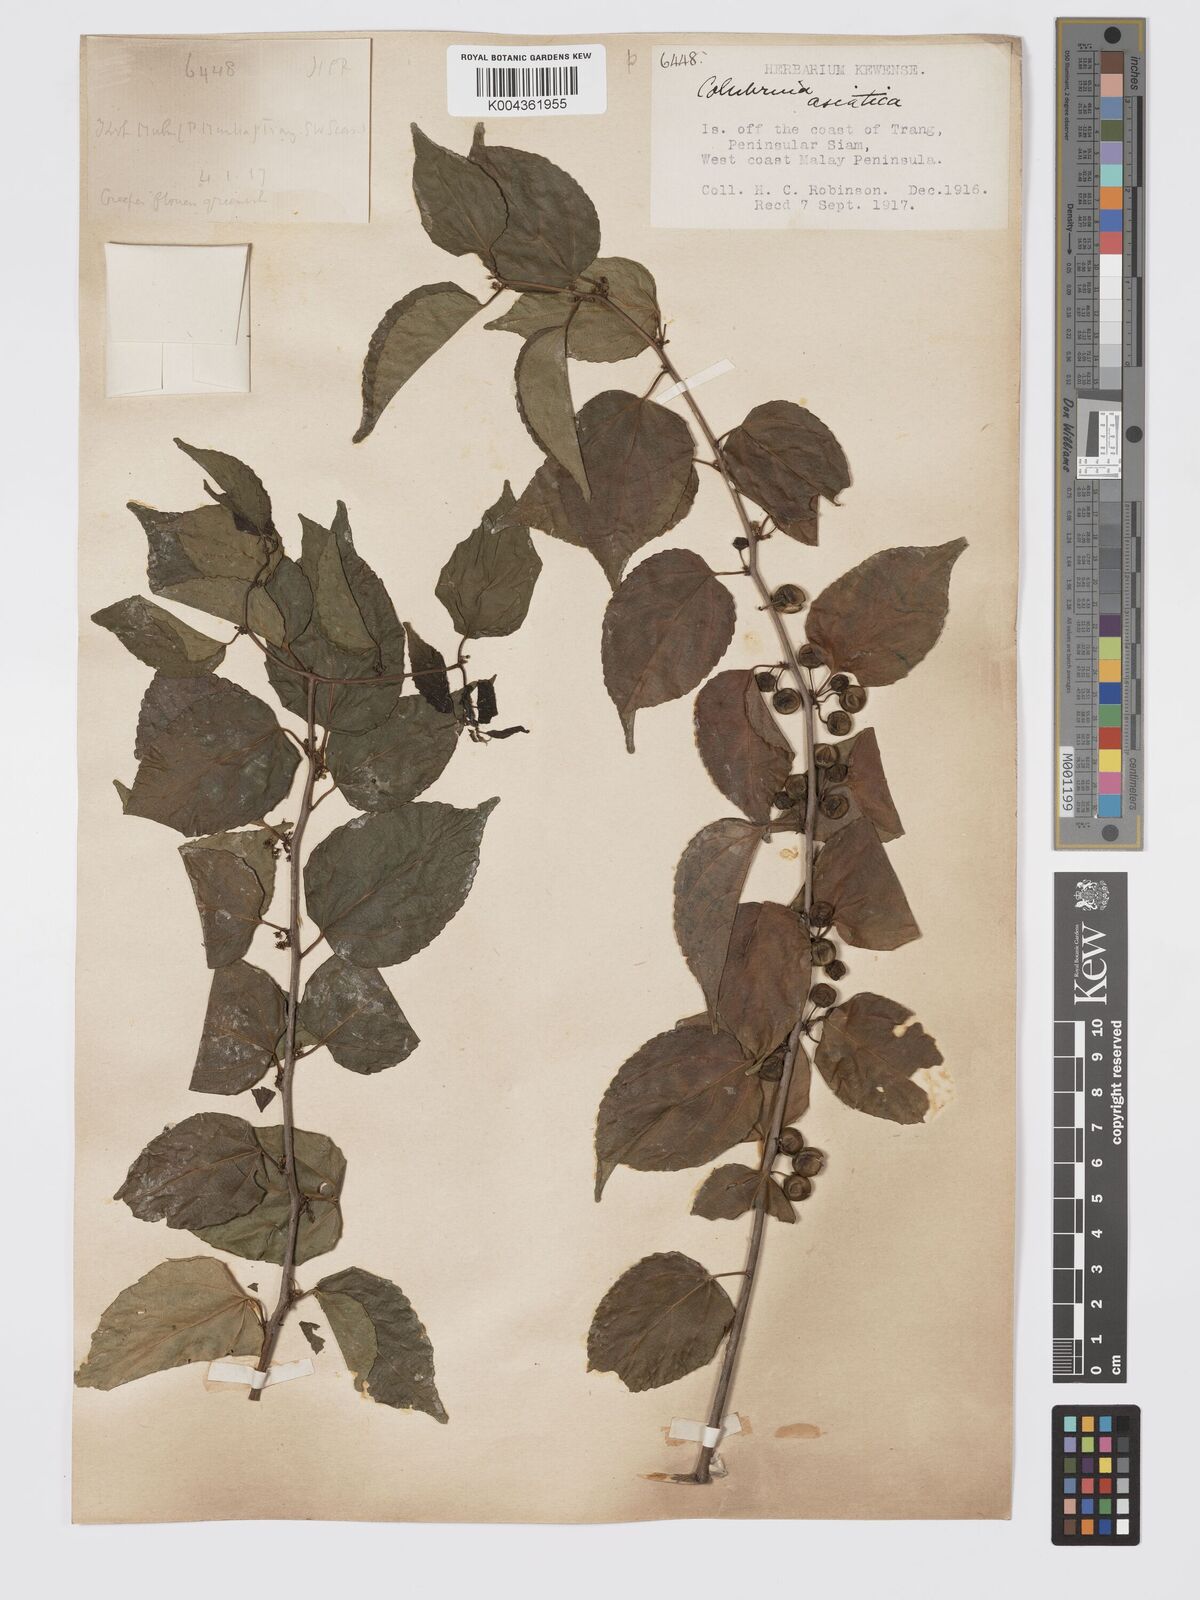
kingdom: Plantae
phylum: Tracheophyta
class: Magnoliopsida
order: Rosales
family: Rhamnaceae
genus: Colubrina
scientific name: Colubrina asiatica
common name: Asian nakedwood
